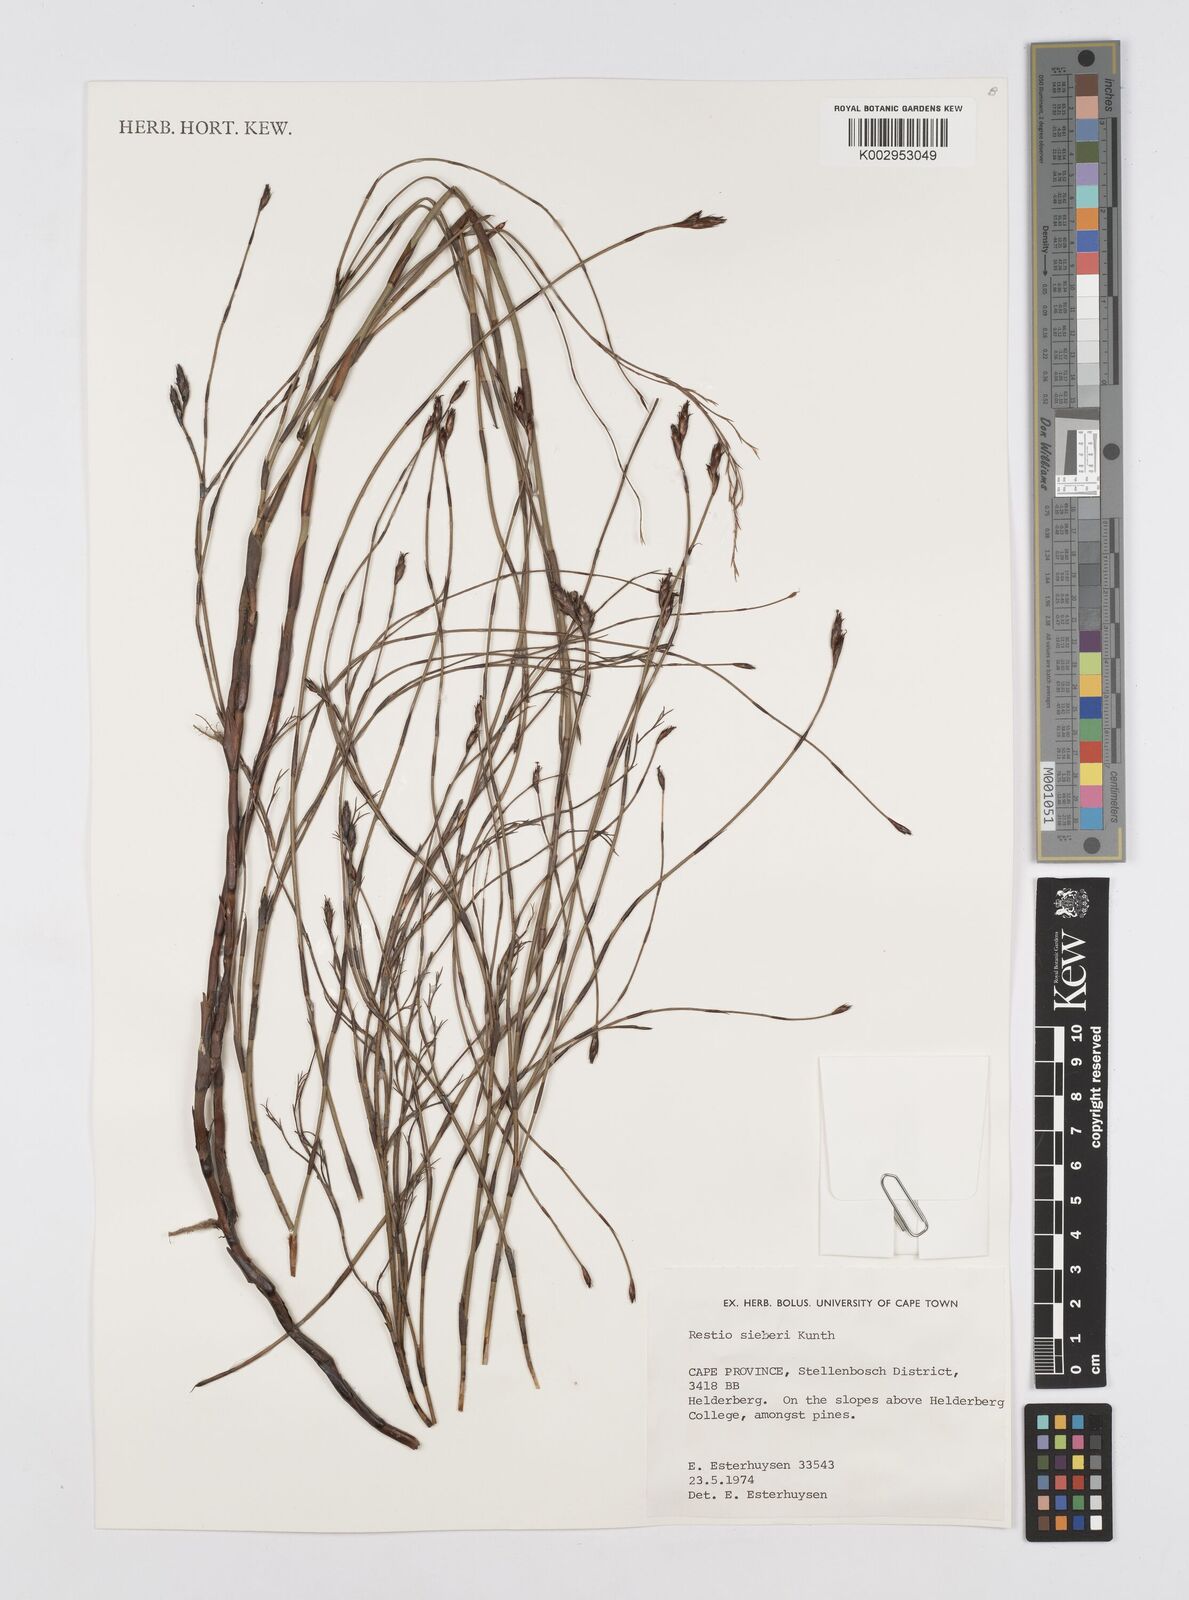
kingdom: Plantae
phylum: Tracheophyta
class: Liliopsida
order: Poales
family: Restionaceae
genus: Restio
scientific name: Restio sieberi
